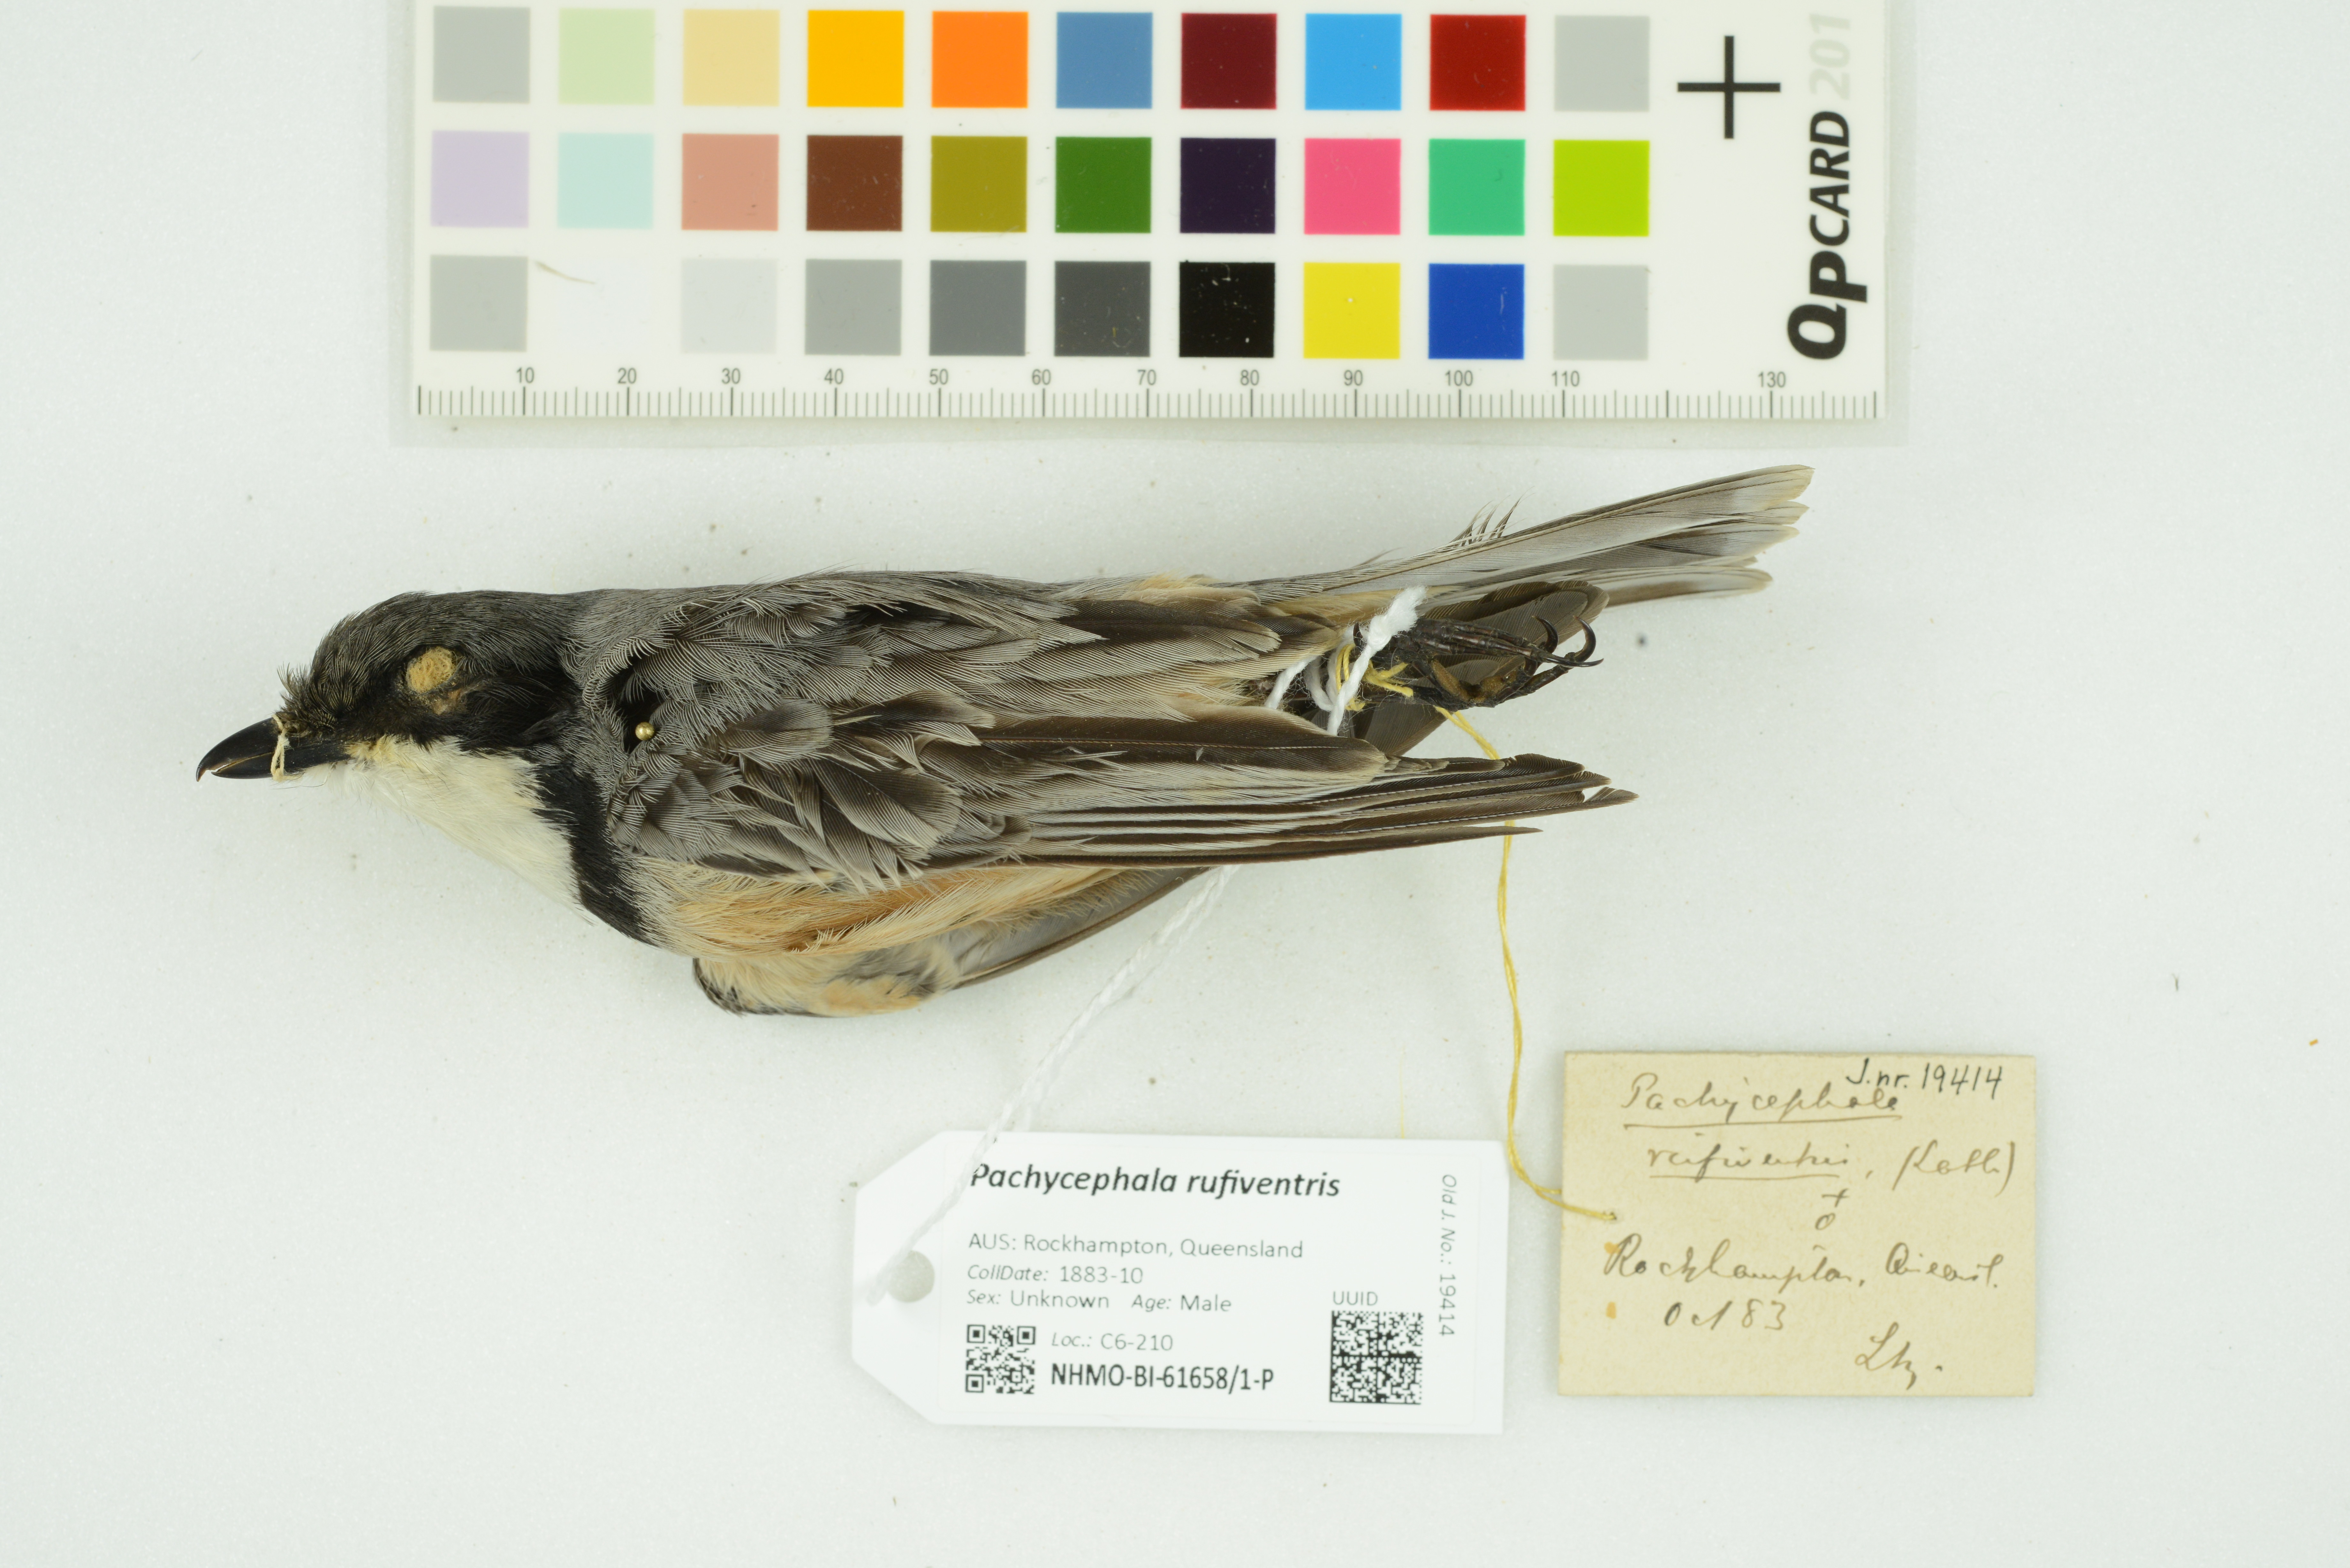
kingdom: Animalia
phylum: Chordata
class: Aves
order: Passeriformes
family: Pachycephalidae
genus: Pachycephala
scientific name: Pachycephala rufiventris
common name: Rufous whistler
